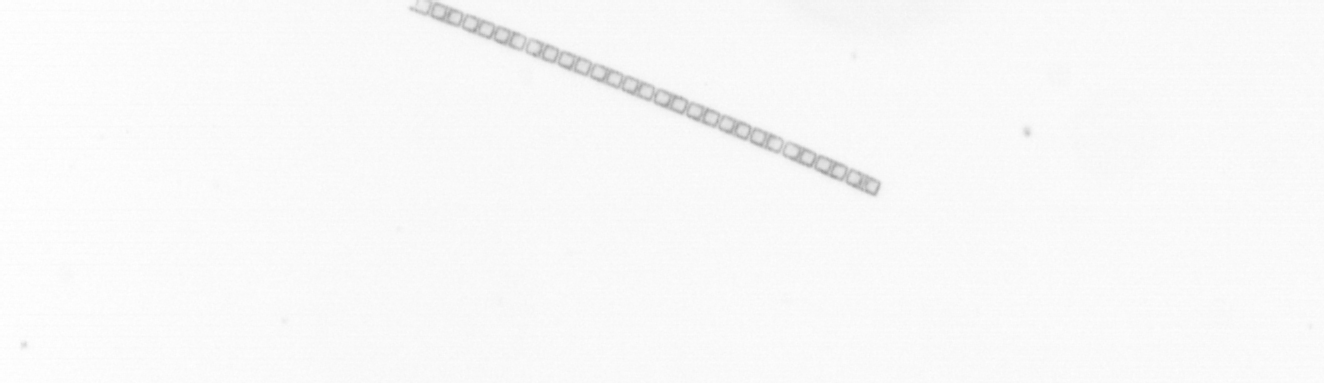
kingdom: Chromista
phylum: Ochrophyta
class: Bacillariophyceae
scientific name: Bacillariophyceae
